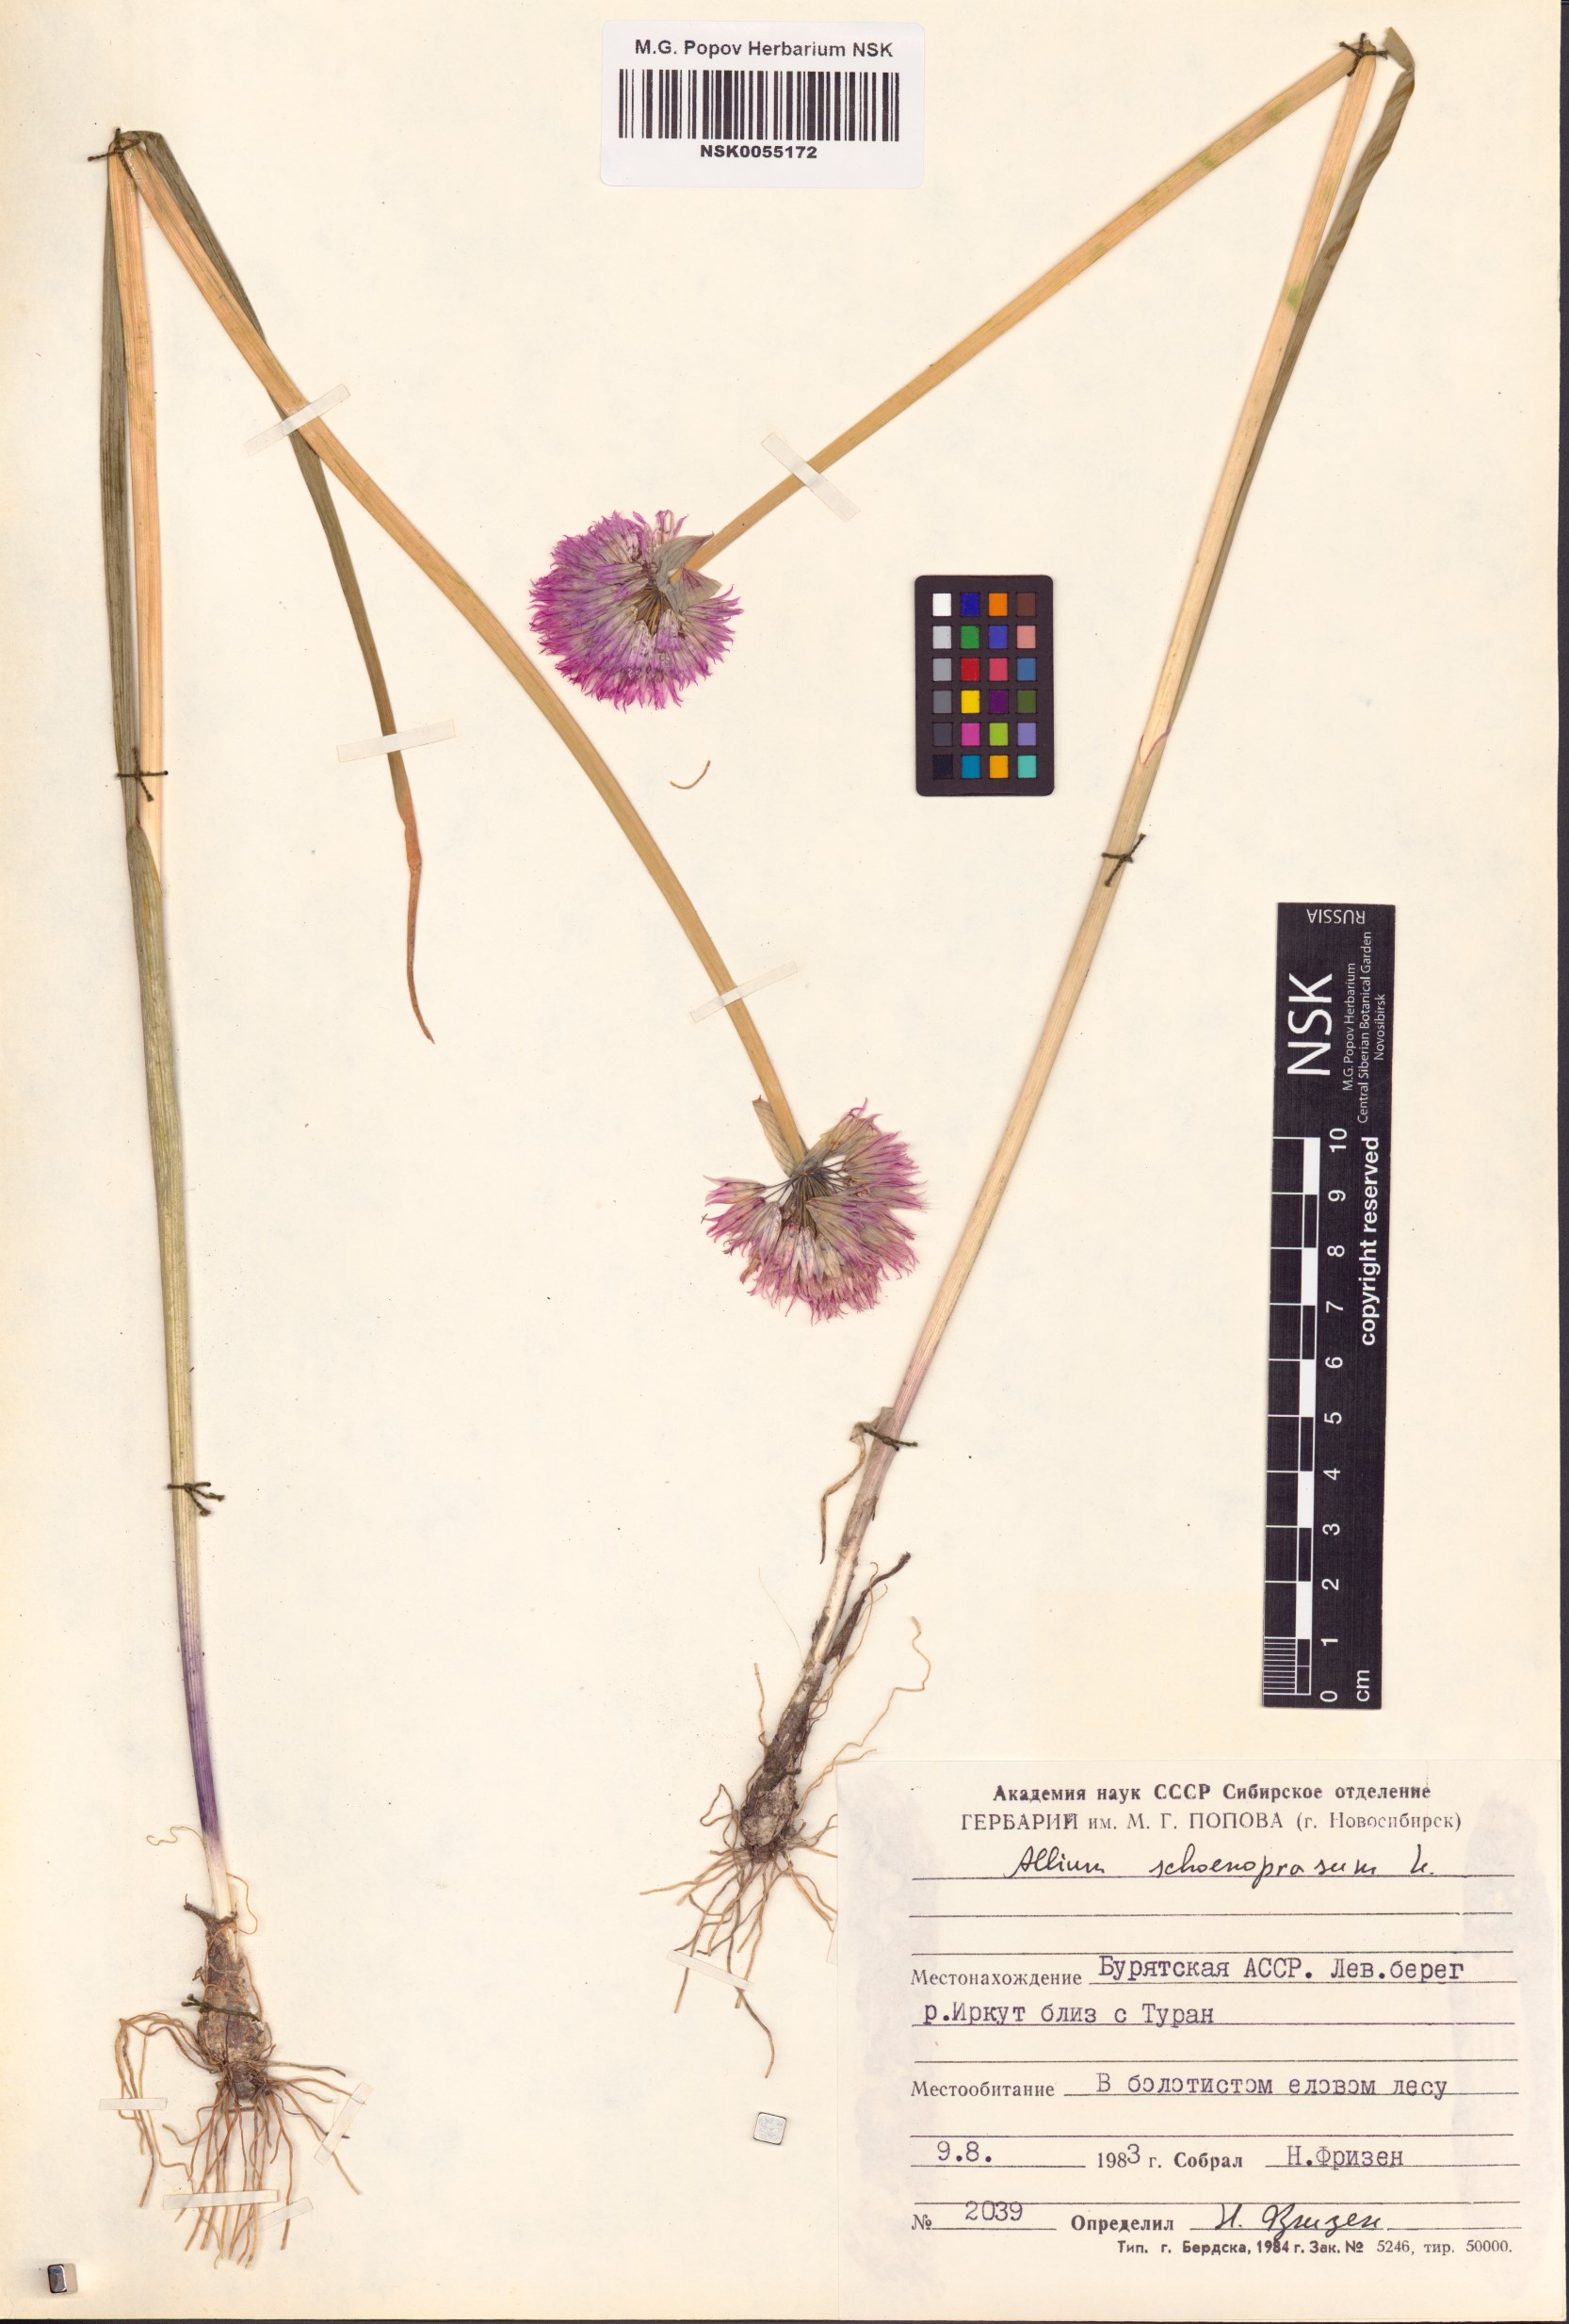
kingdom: Plantae
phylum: Tracheophyta
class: Liliopsida
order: Asparagales
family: Amaryllidaceae
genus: Allium
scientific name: Allium schoenoprasum
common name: Chives
